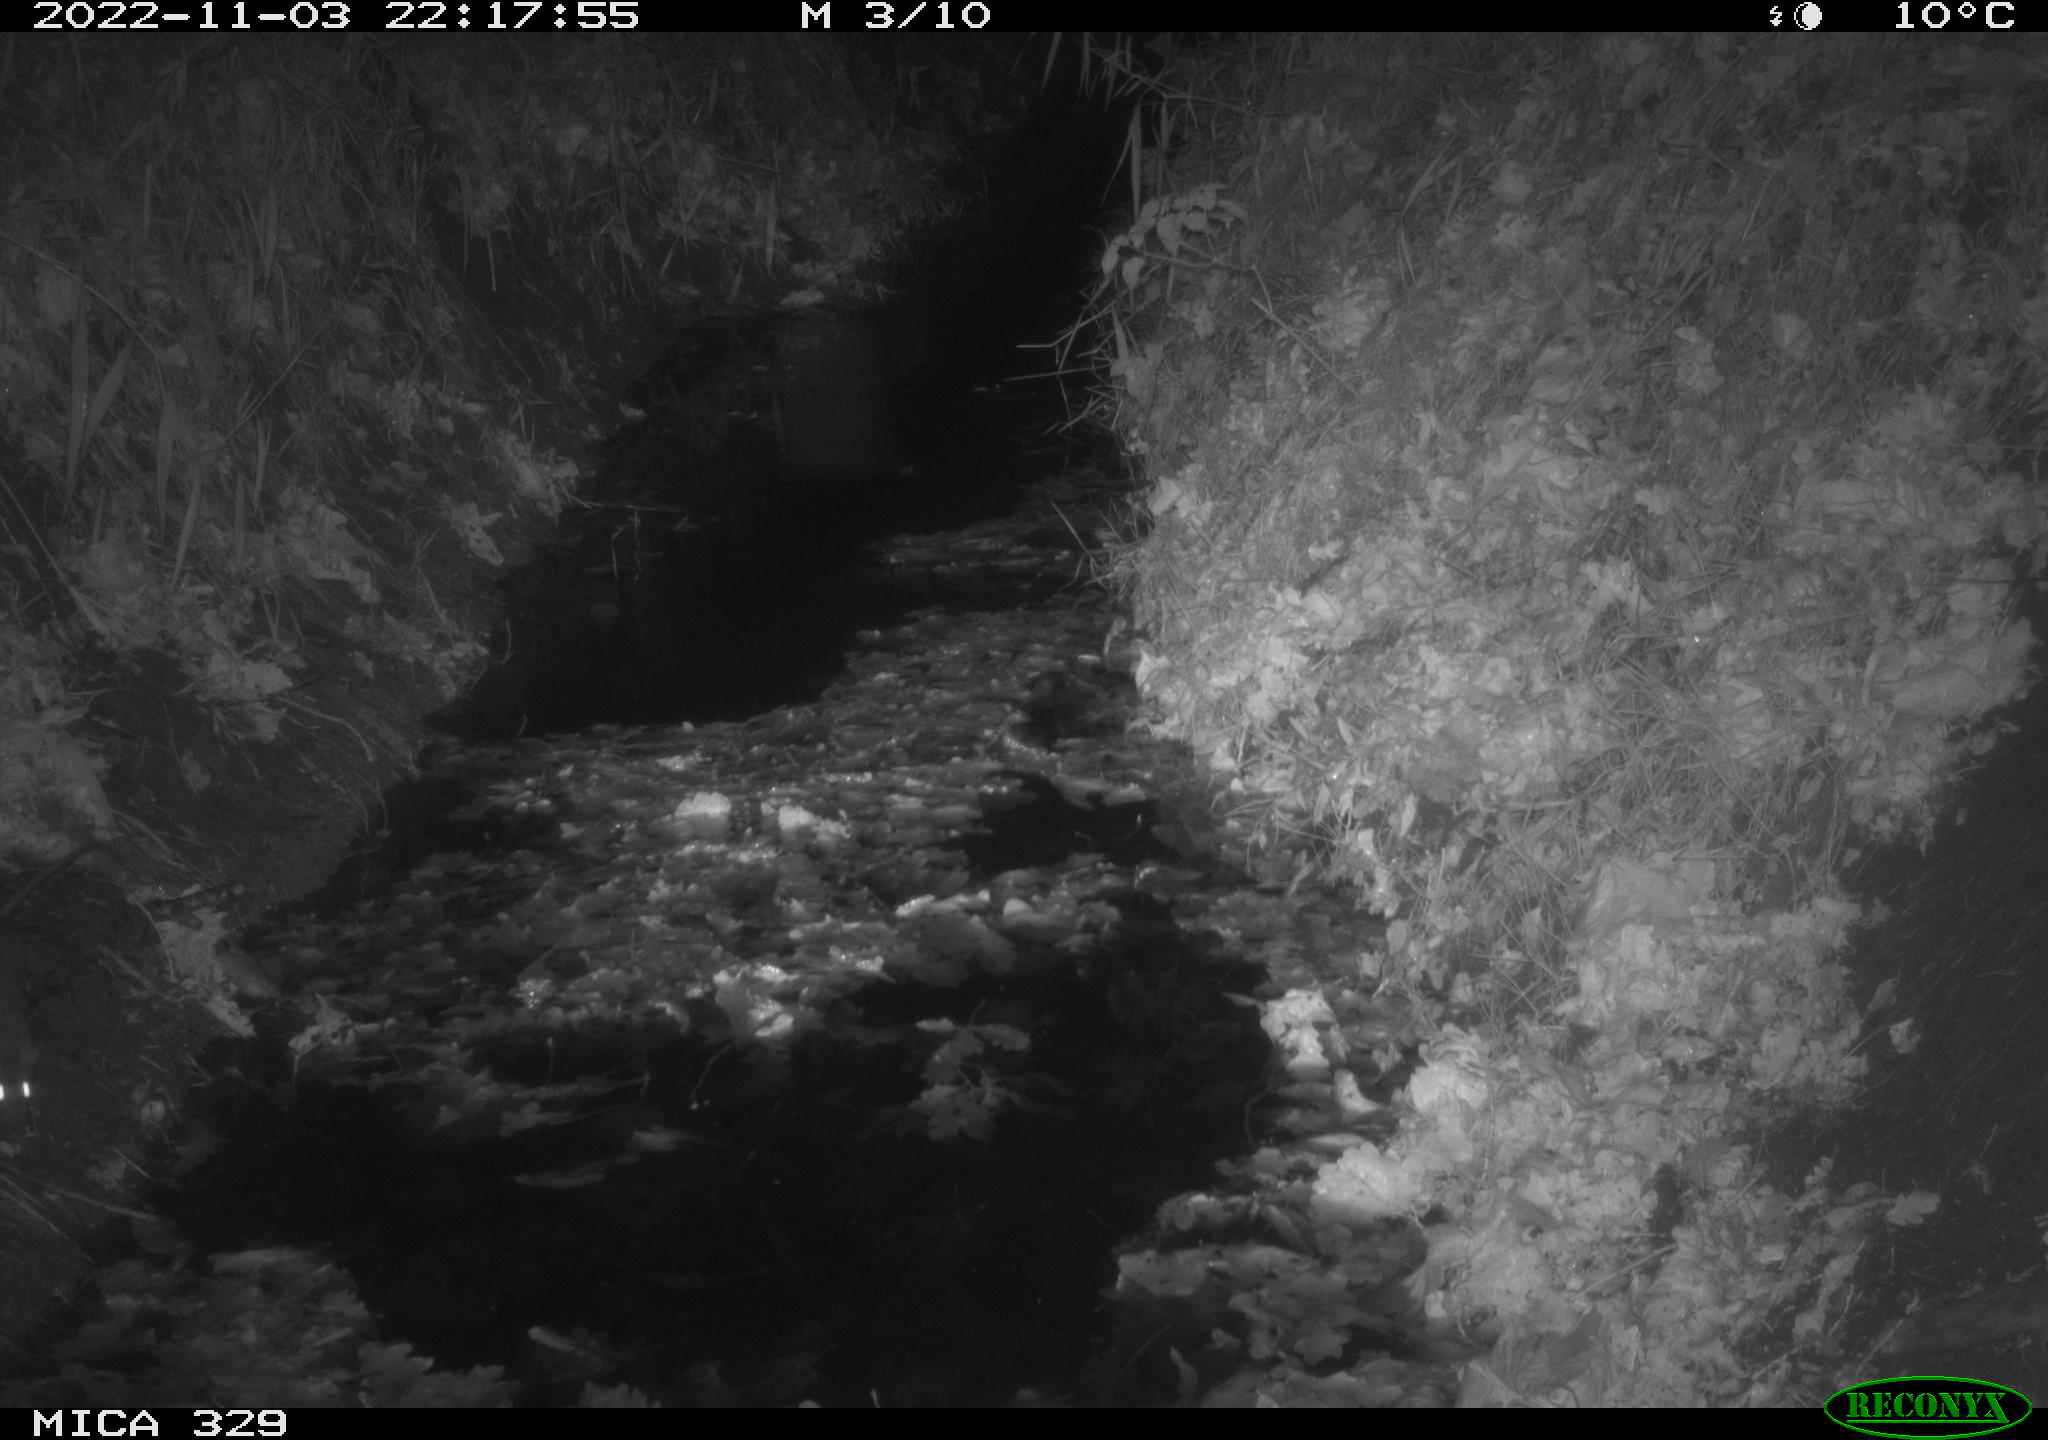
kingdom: Animalia
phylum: Chordata
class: Mammalia
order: Rodentia
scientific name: Rodentia
